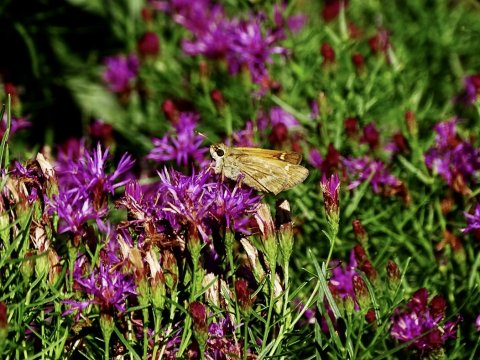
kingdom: Animalia
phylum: Arthropoda
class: Insecta
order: Lepidoptera
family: Hesperiidae
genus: Atalopedes
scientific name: Atalopedes campestris
